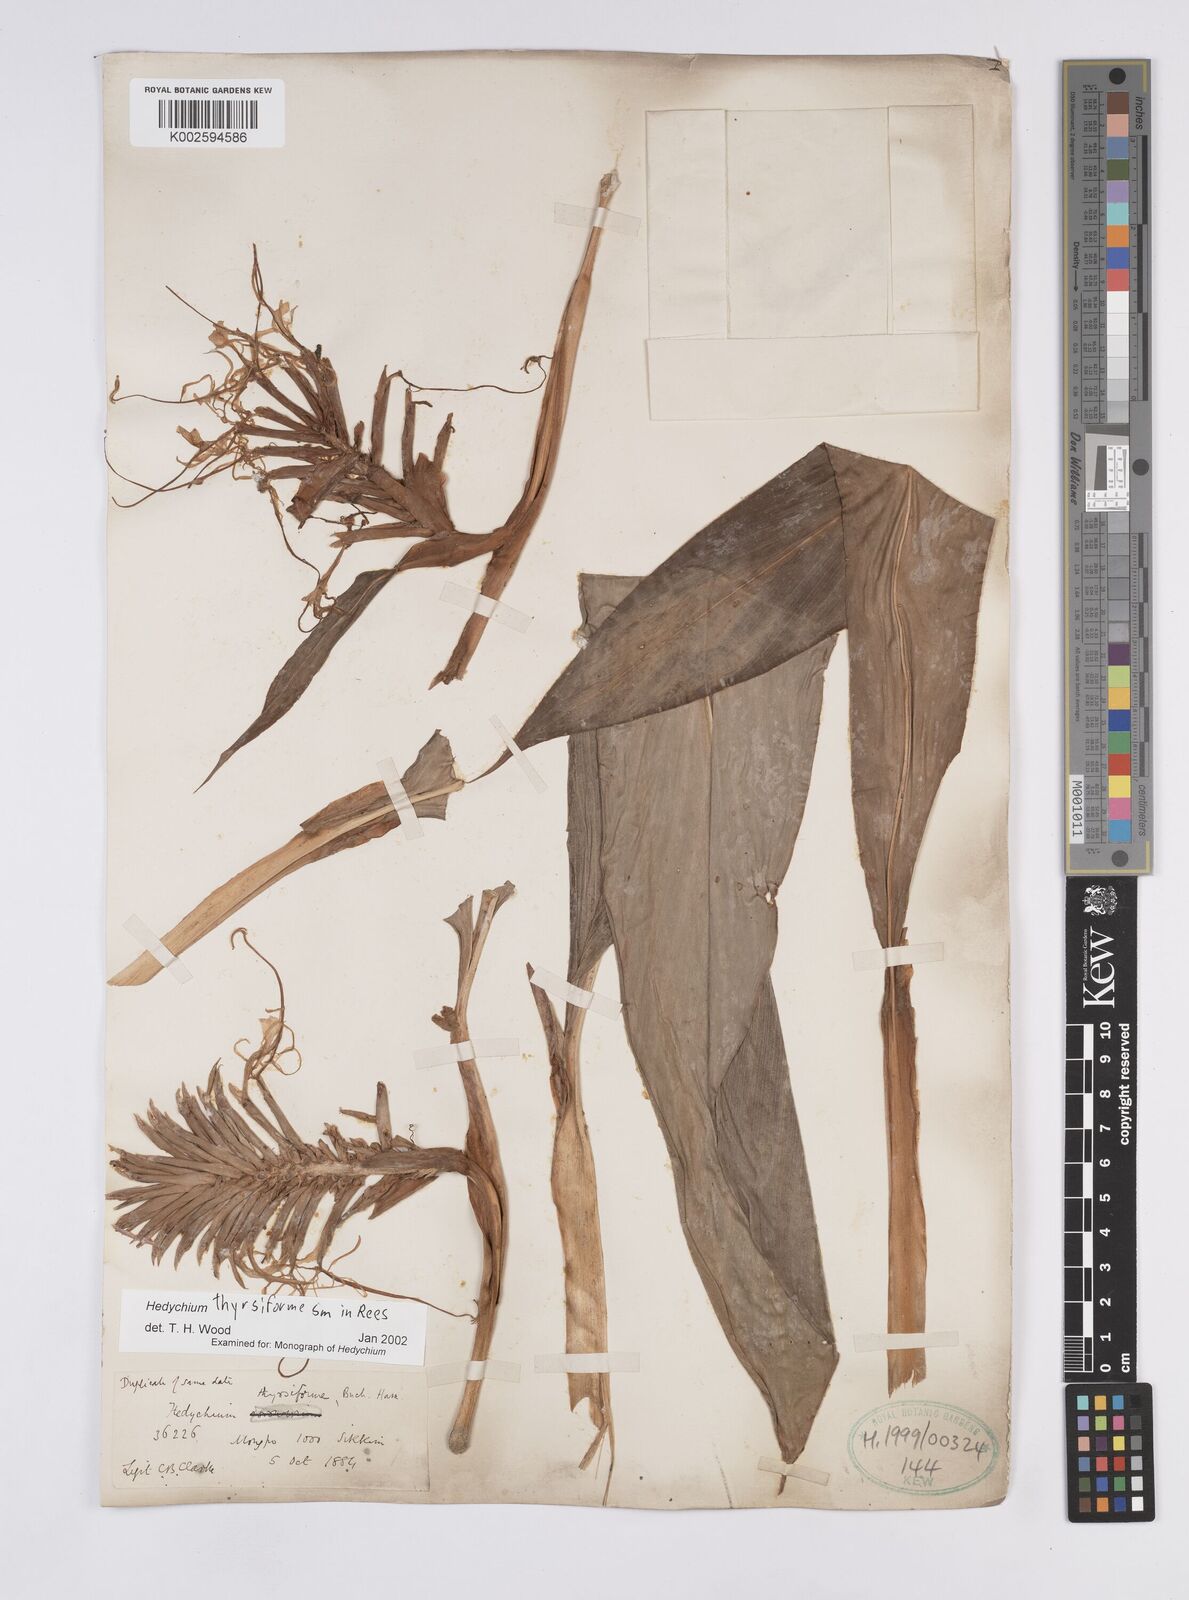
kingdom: Plantae
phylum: Tracheophyta
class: Liliopsida
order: Zingiberales
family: Zingiberaceae
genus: Hedychium
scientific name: Hedychium thyrsiforme
